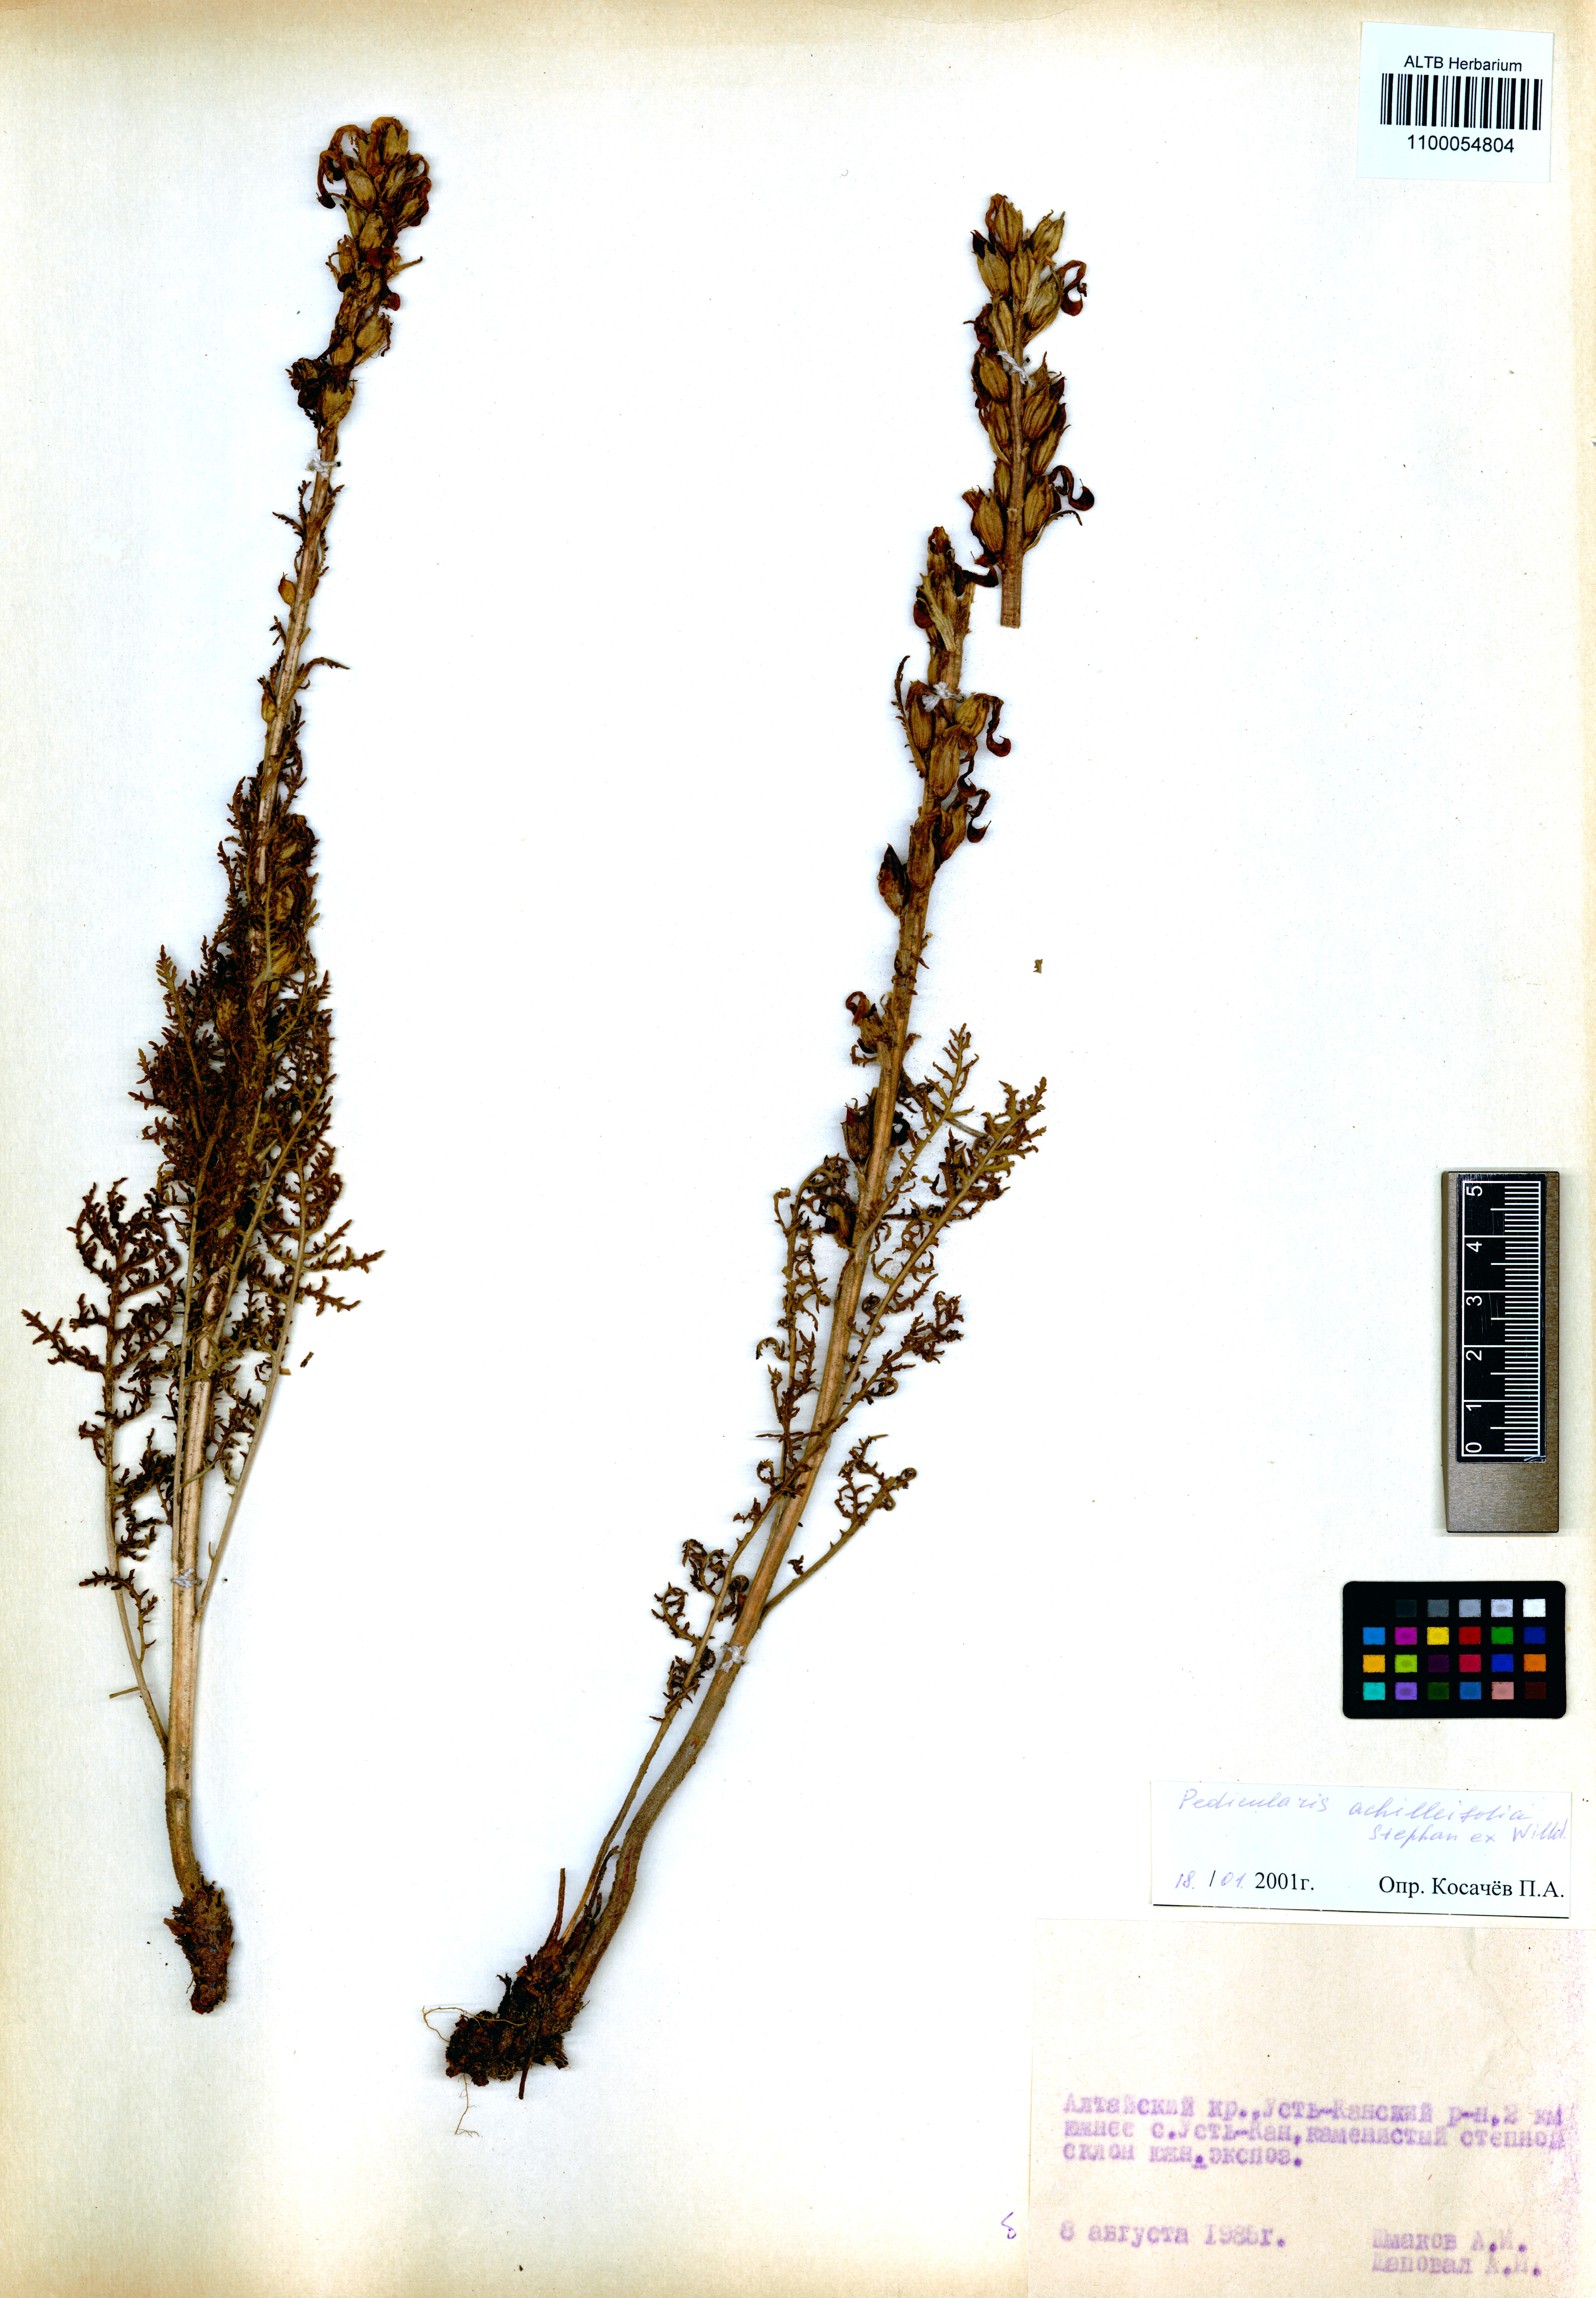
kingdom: Plantae
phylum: Tracheophyta
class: Magnoliopsida
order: Lamiales
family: Orobanchaceae
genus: Pedicularis
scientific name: Pedicularis achilleifolia
